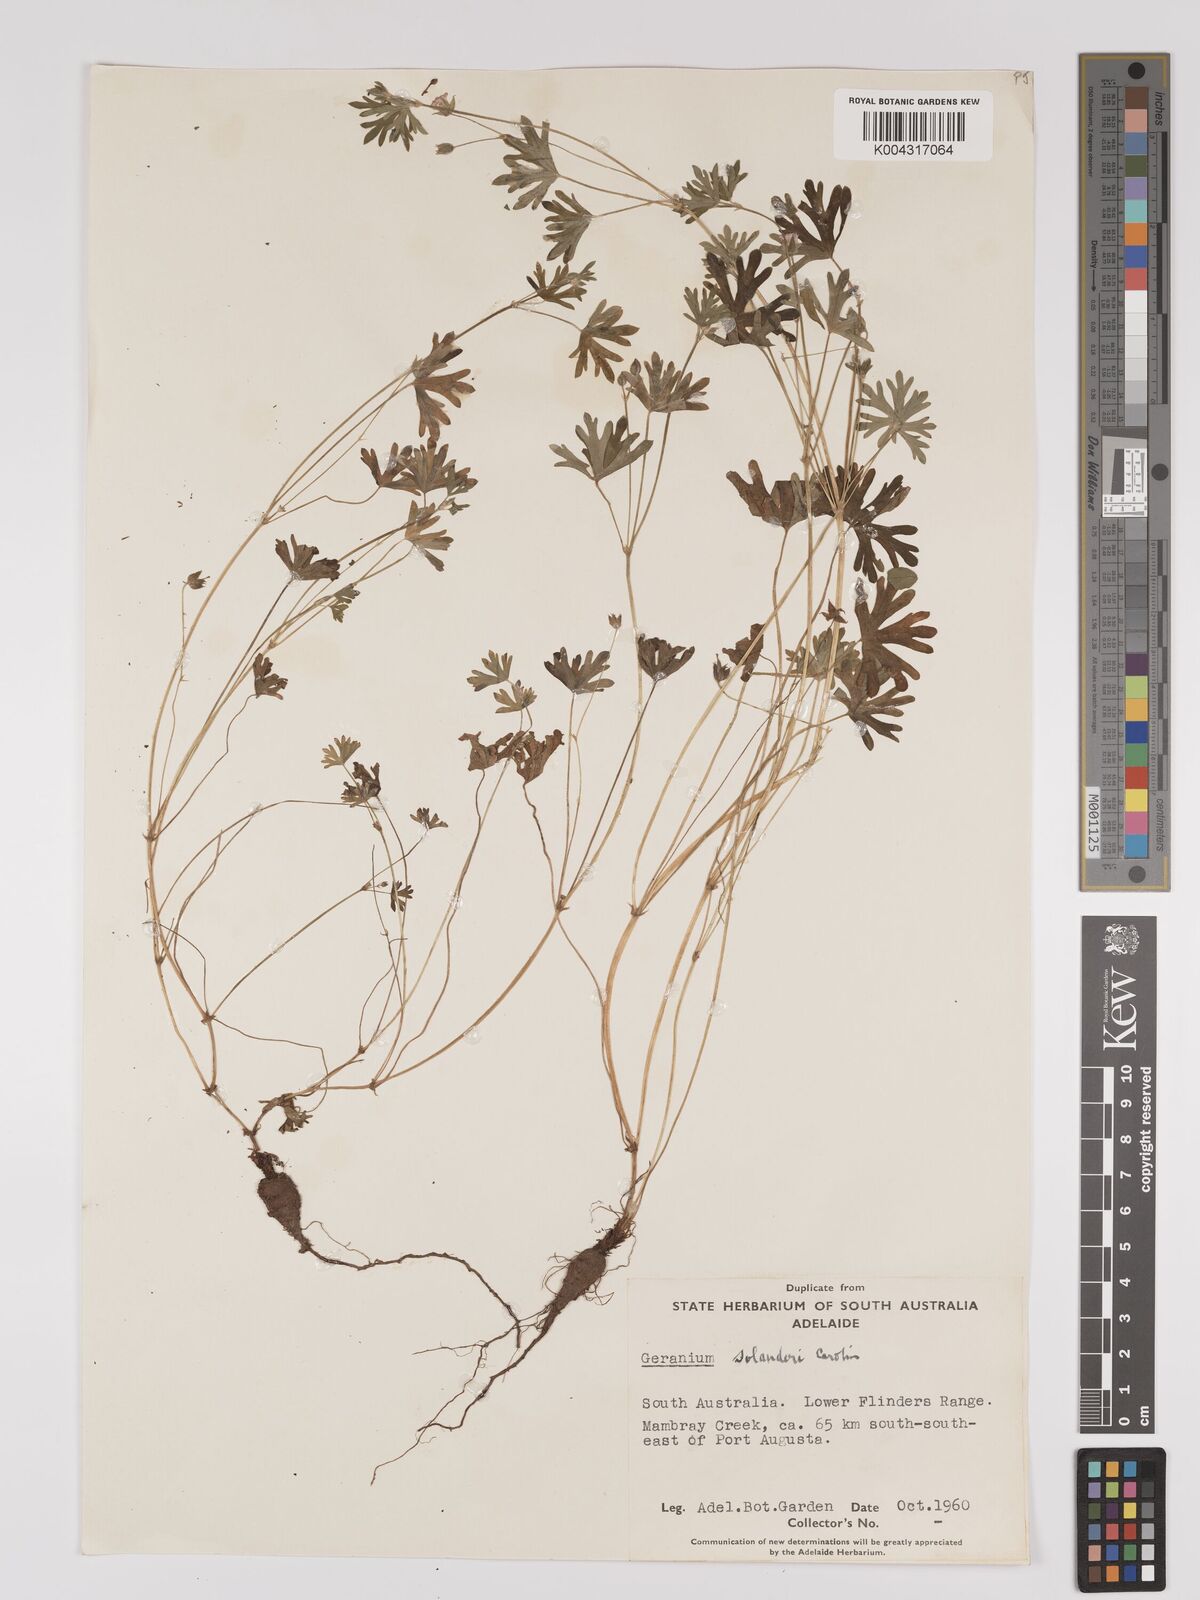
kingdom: Plantae
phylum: Tracheophyta
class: Magnoliopsida
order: Geraniales
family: Geraniaceae
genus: Geranium
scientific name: Geranium solanderi
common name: Solander's geranium
